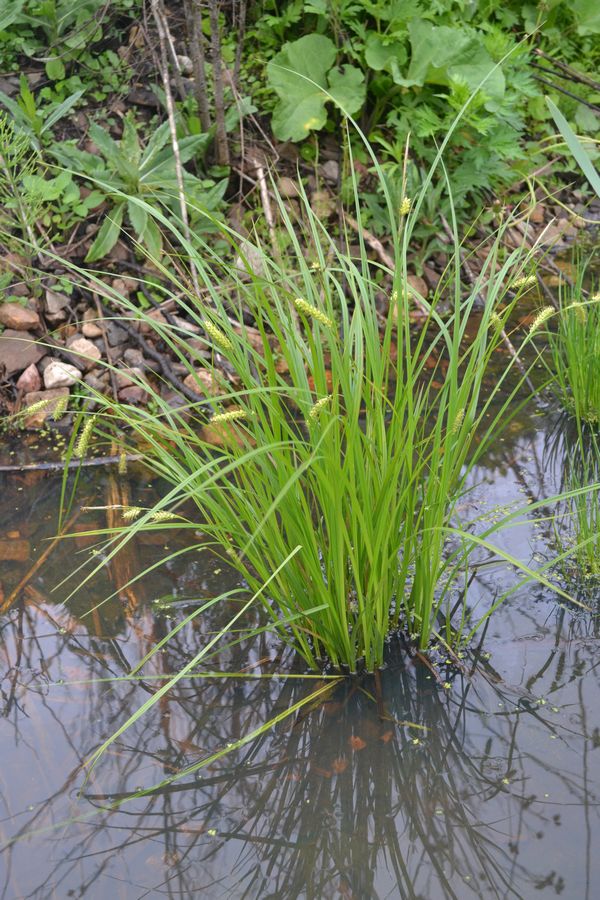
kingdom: Plantae
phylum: Tracheophyta
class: Liliopsida
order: Poales
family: Cyperaceae
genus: Carex
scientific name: Carex vesicaria
